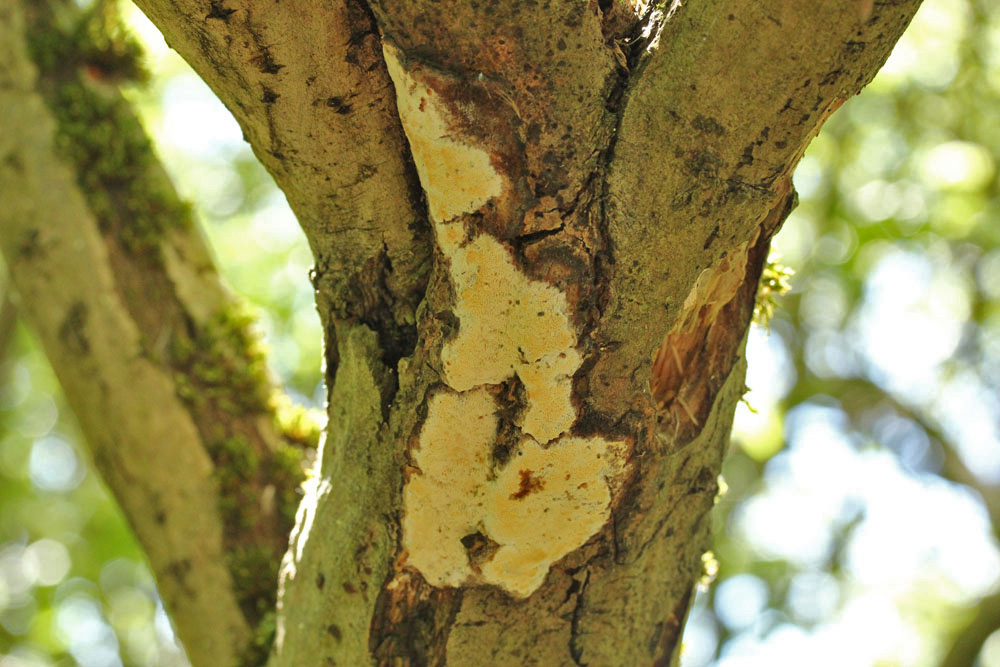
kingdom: Fungi
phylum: Basidiomycota
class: Agaricomycetes
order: Polyporales
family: Irpicaceae
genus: Resiniporus
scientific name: Resiniporus resinascens
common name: trist pastelporesvamp
